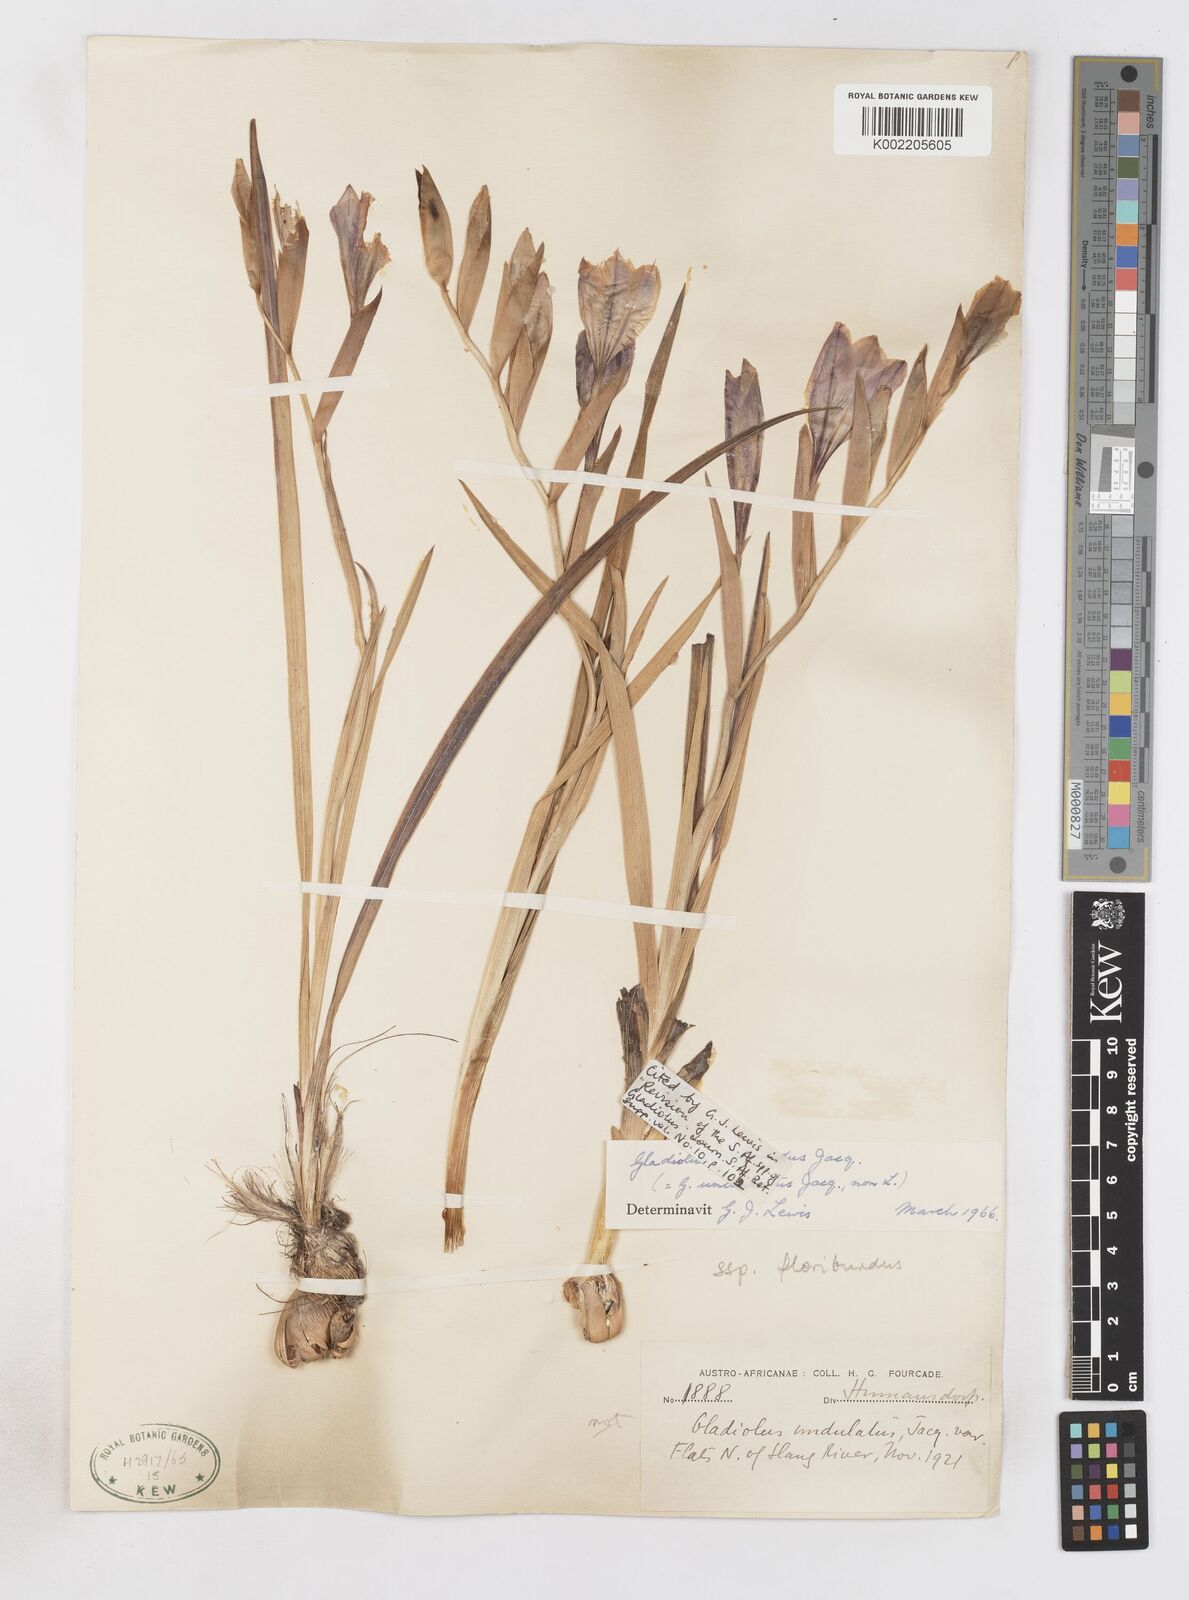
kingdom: Plantae
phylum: Tracheophyta
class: Liliopsida
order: Asparagales
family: Iridaceae
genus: Gladiolus
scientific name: Gladiolus floribundus
